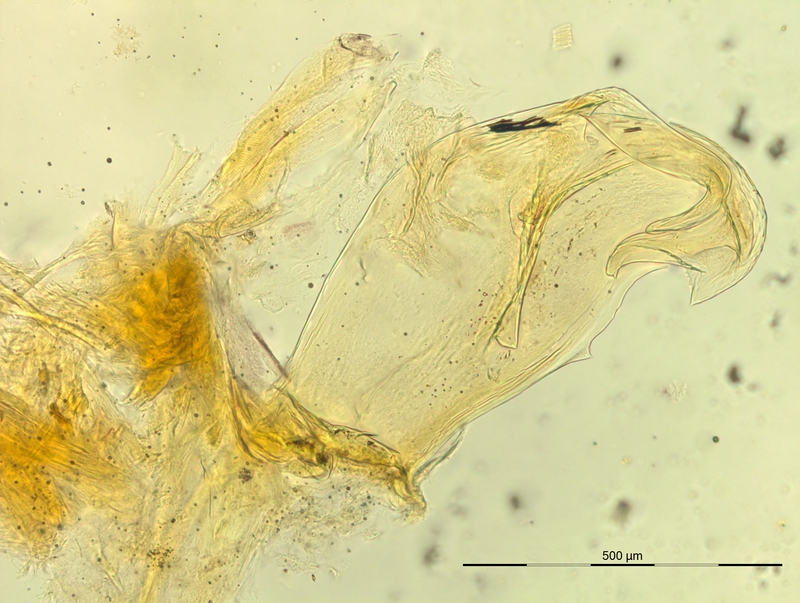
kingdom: Animalia
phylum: Arthropoda
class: Diplopoda
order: Chordeumatida
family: Craspedosomatidae
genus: Bergamosoma
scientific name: Bergamosoma sevini
